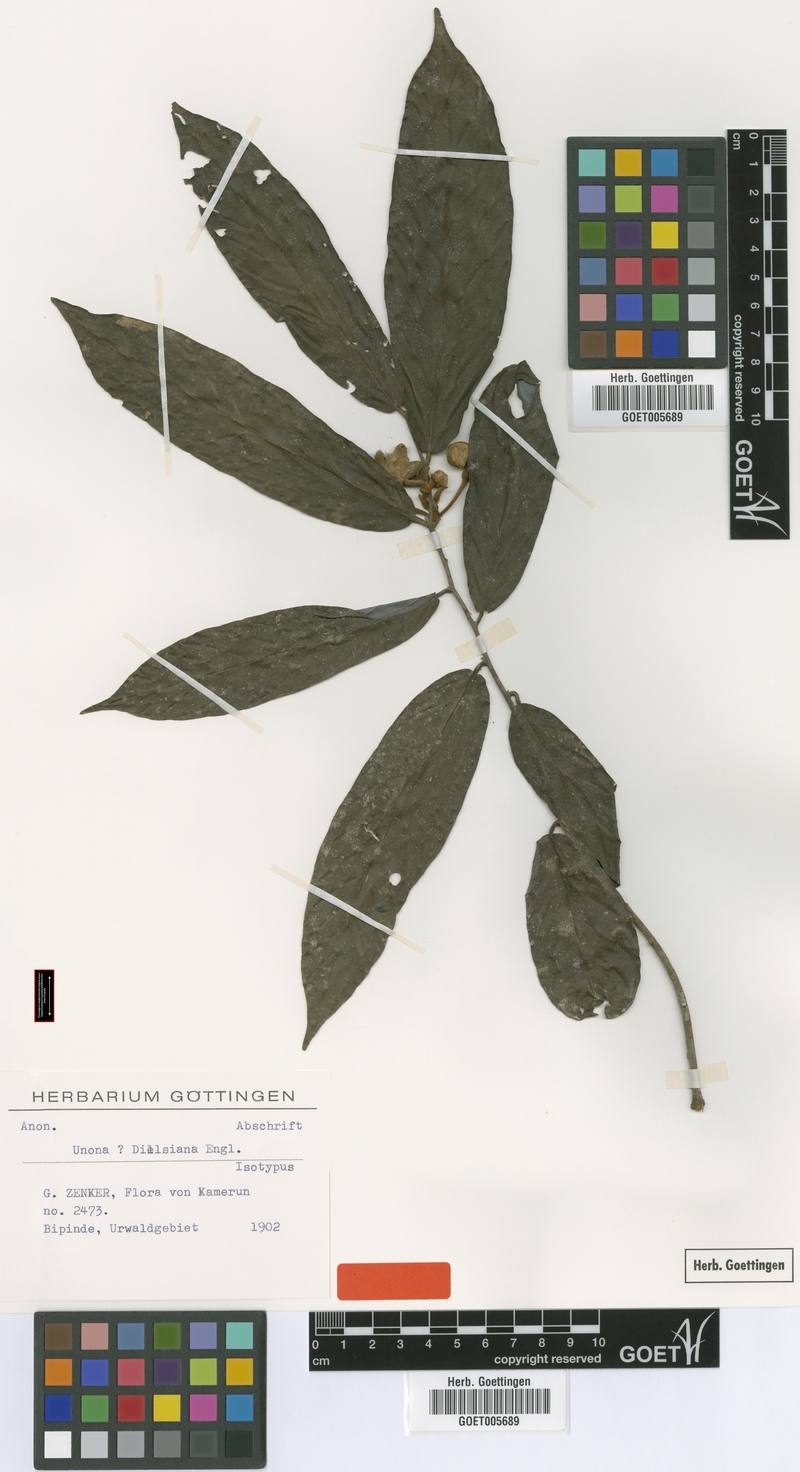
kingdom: Plantae
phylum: Tracheophyta
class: Magnoliopsida
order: Magnoliales
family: Annonaceae
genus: Friesodielsia
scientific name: Friesodielsia dielsiana
